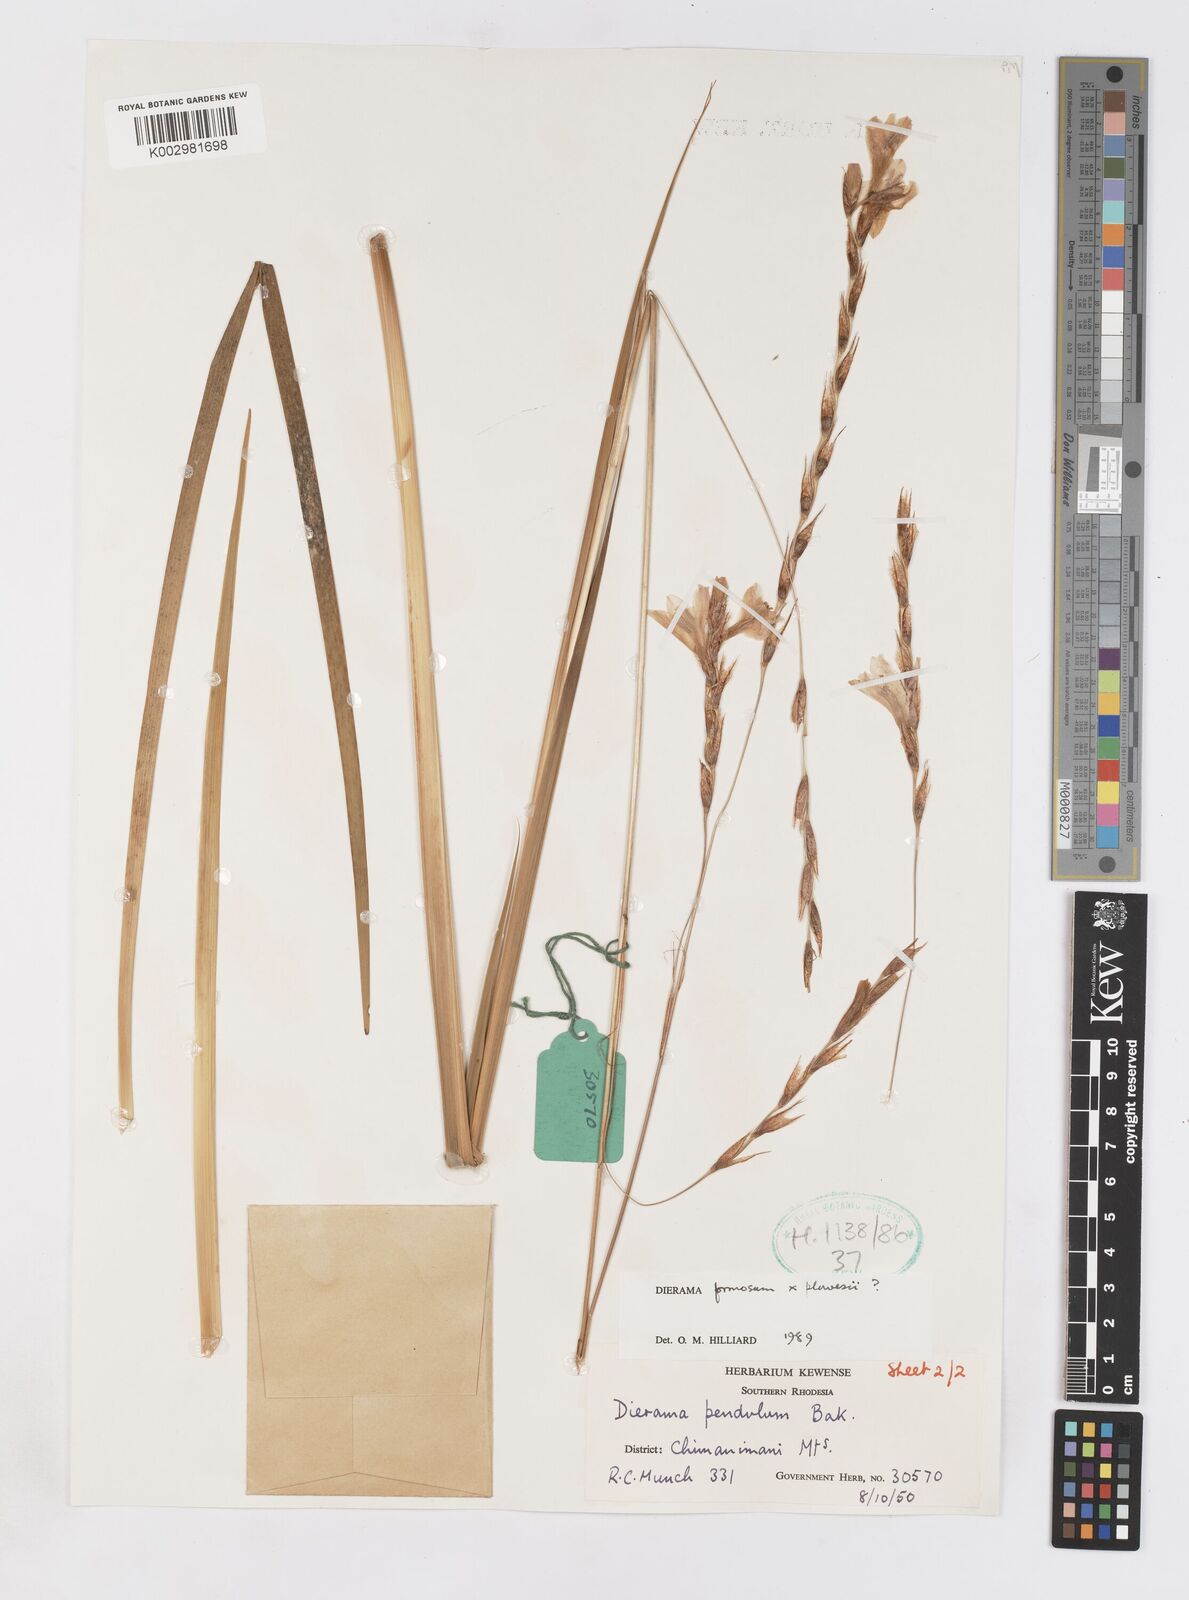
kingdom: Plantae
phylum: Tracheophyta
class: Liliopsida
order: Asparagales
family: Iridaceae
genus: Dierama
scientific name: Dierama formosum
